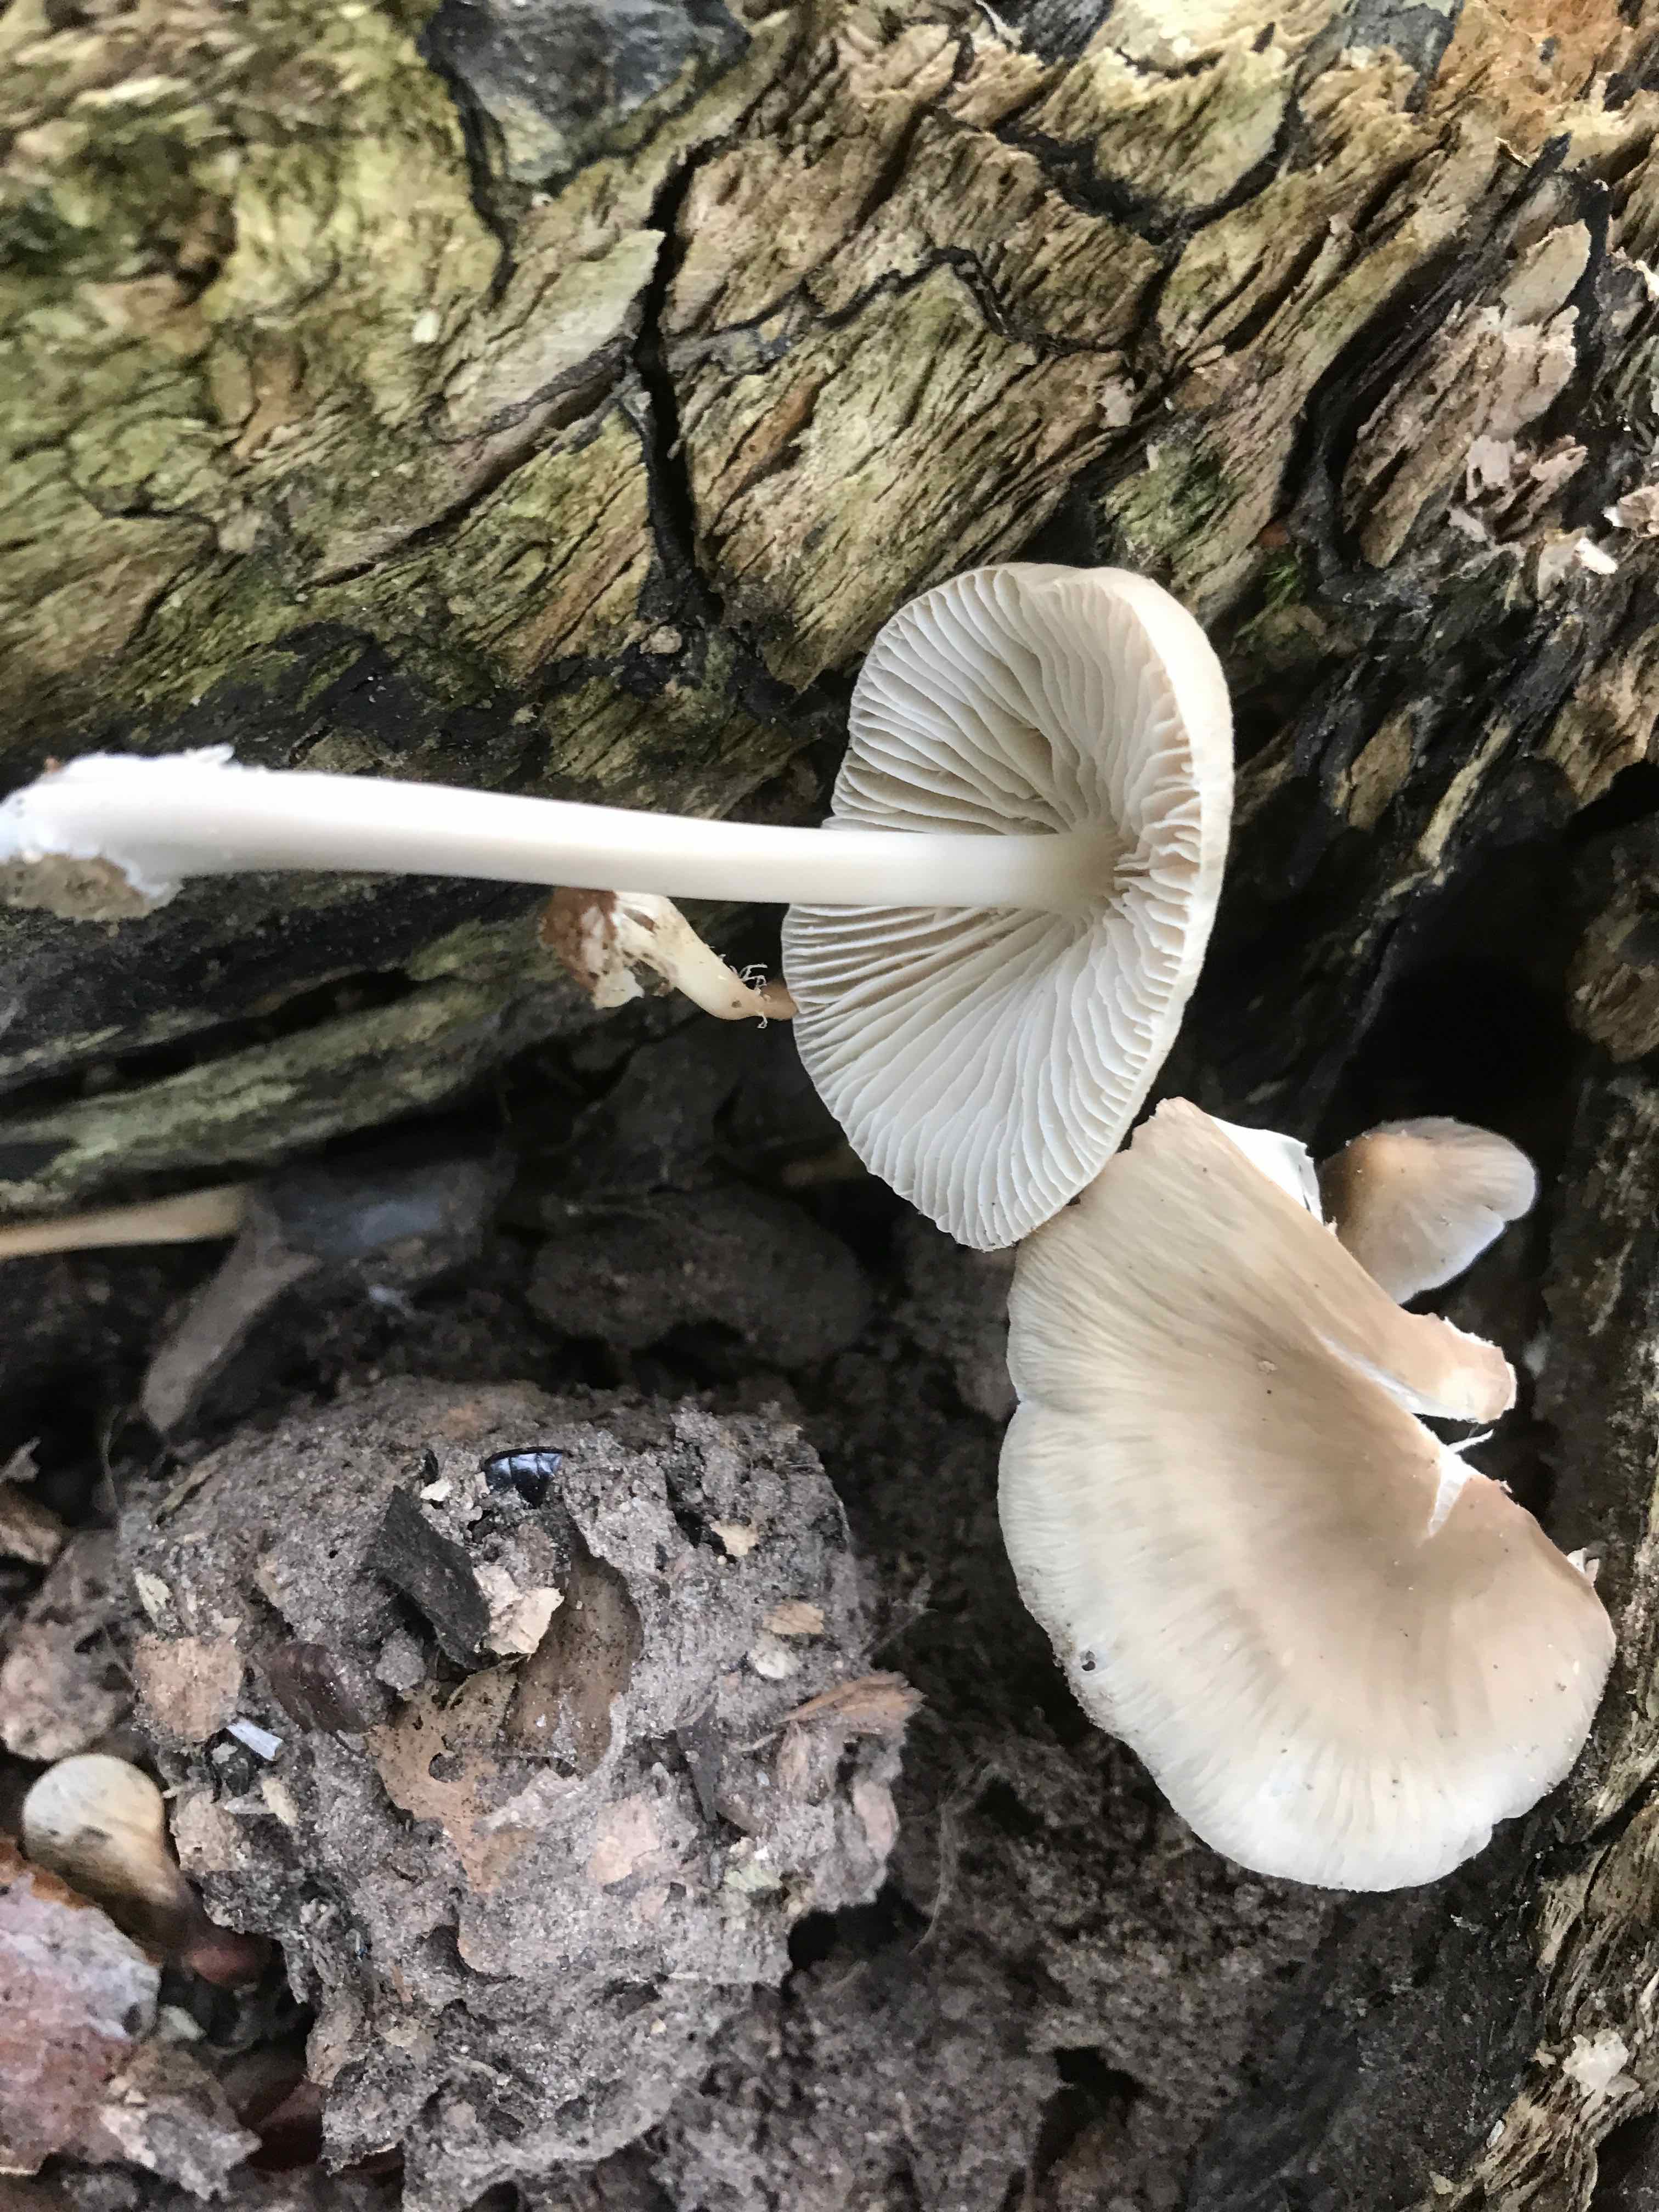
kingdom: Fungi
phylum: Basidiomycota
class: Agaricomycetes
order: Agaricales
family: Mycenaceae
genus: Mycena
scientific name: Mycena galericulata
